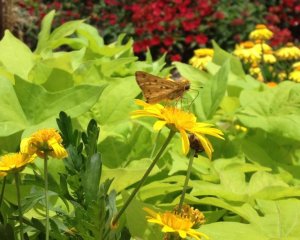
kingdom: Animalia
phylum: Arthropoda
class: Insecta
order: Lepidoptera
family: Hesperiidae
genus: Hylephila
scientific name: Hylephila phyleus
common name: Fiery Skipper
